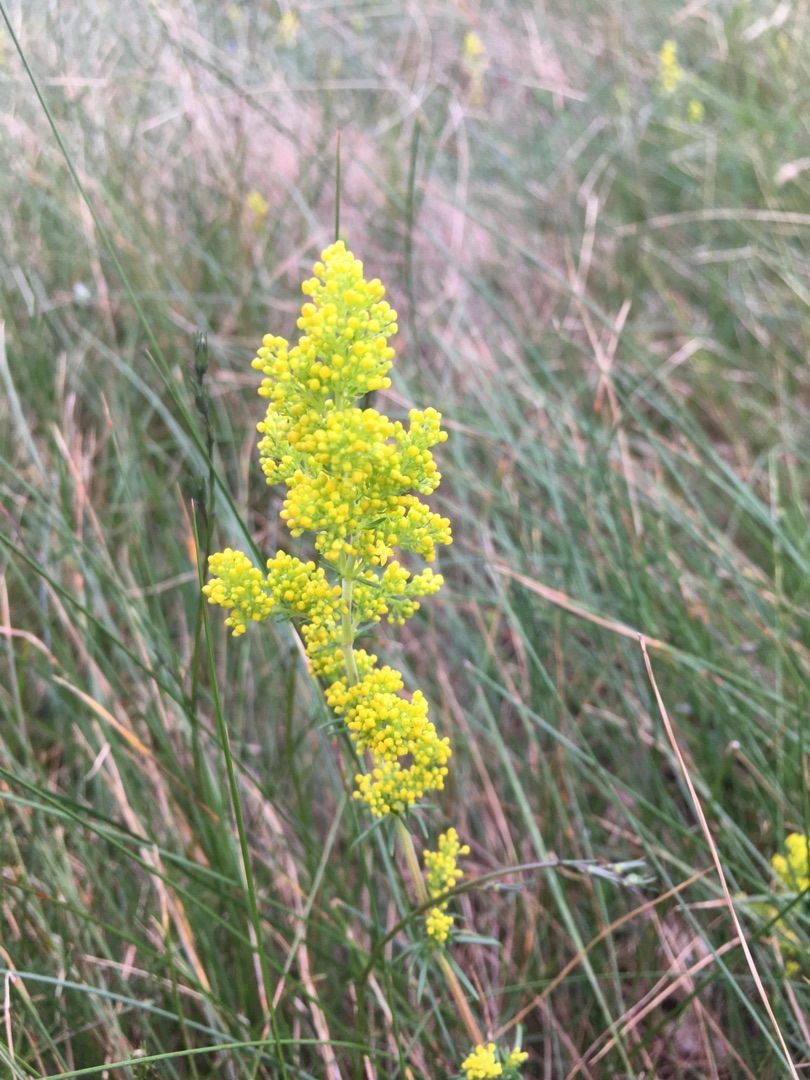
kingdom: Plantae
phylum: Tracheophyta
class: Magnoliopsida
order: Gentianales
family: Rubiaceae
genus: Galium
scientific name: Galium verum
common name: Gul snerre
